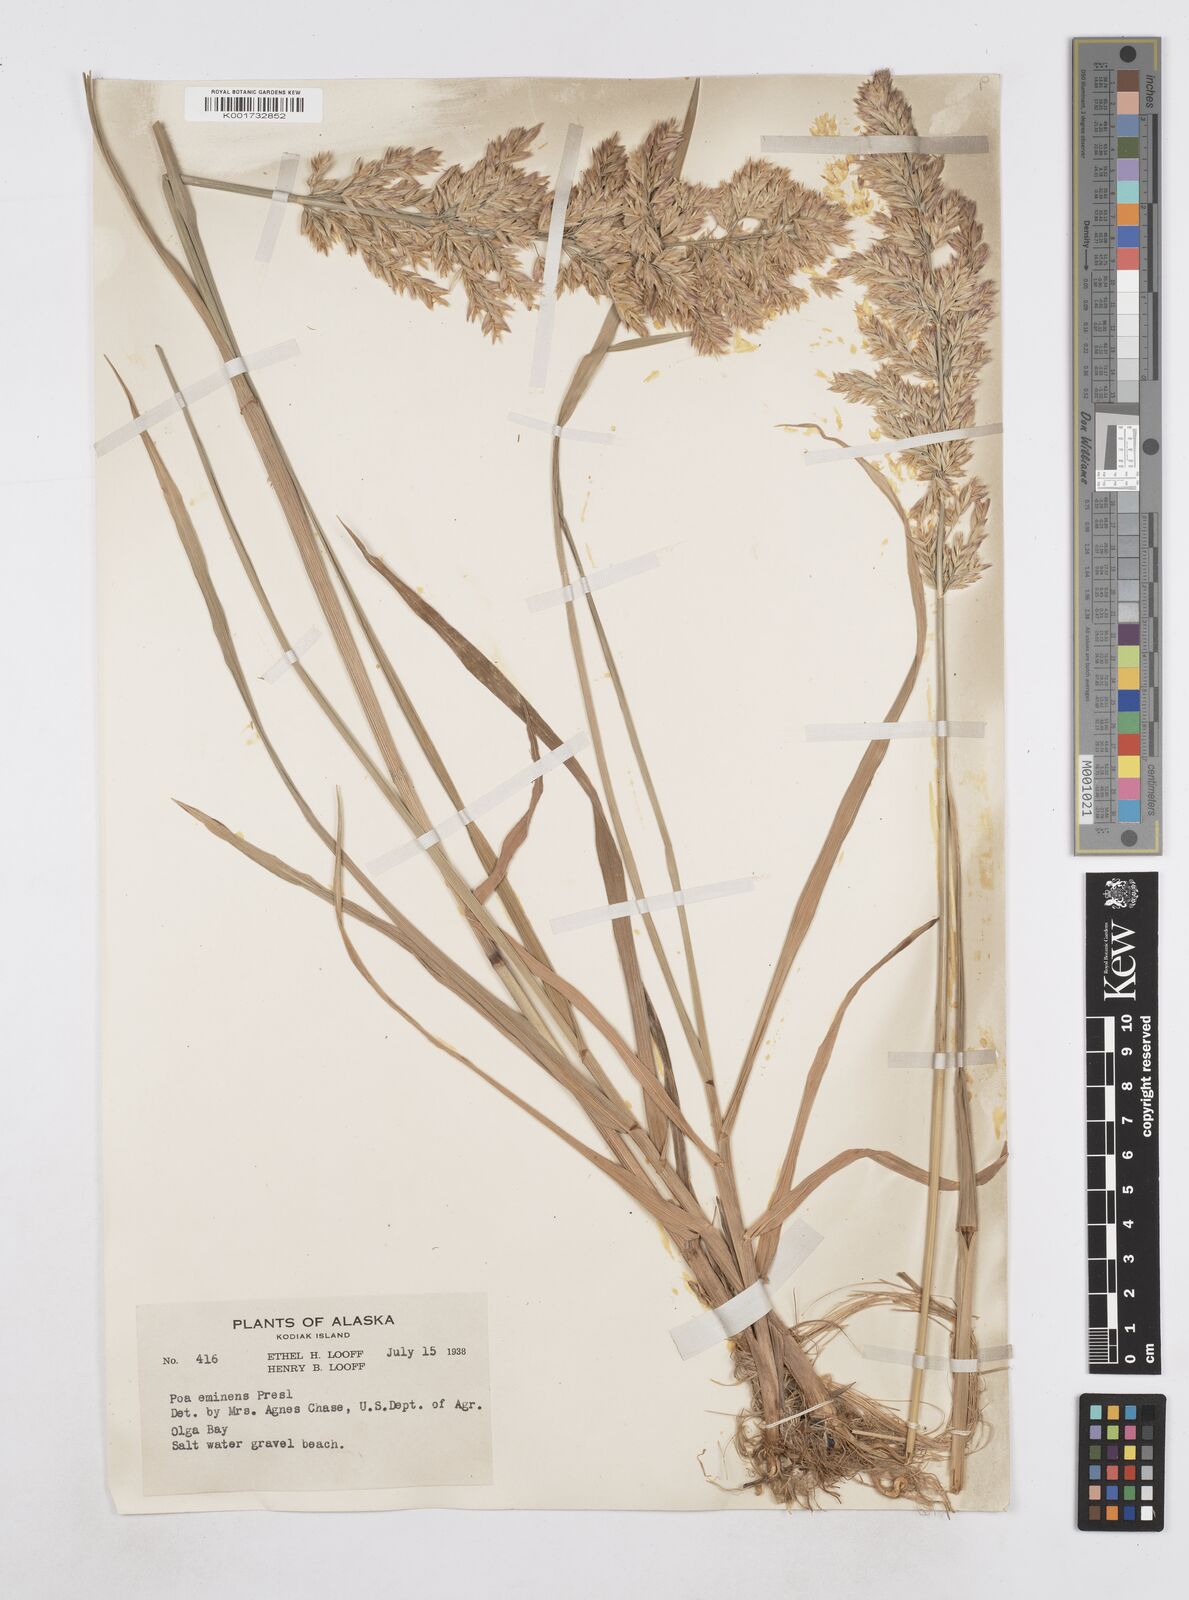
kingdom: Plantae
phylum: Tracheophyta
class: Liliopsida
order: Poales
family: Poaceae
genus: Arctopoa
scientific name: Arctopoa eminens
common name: Eminent bluegrass
